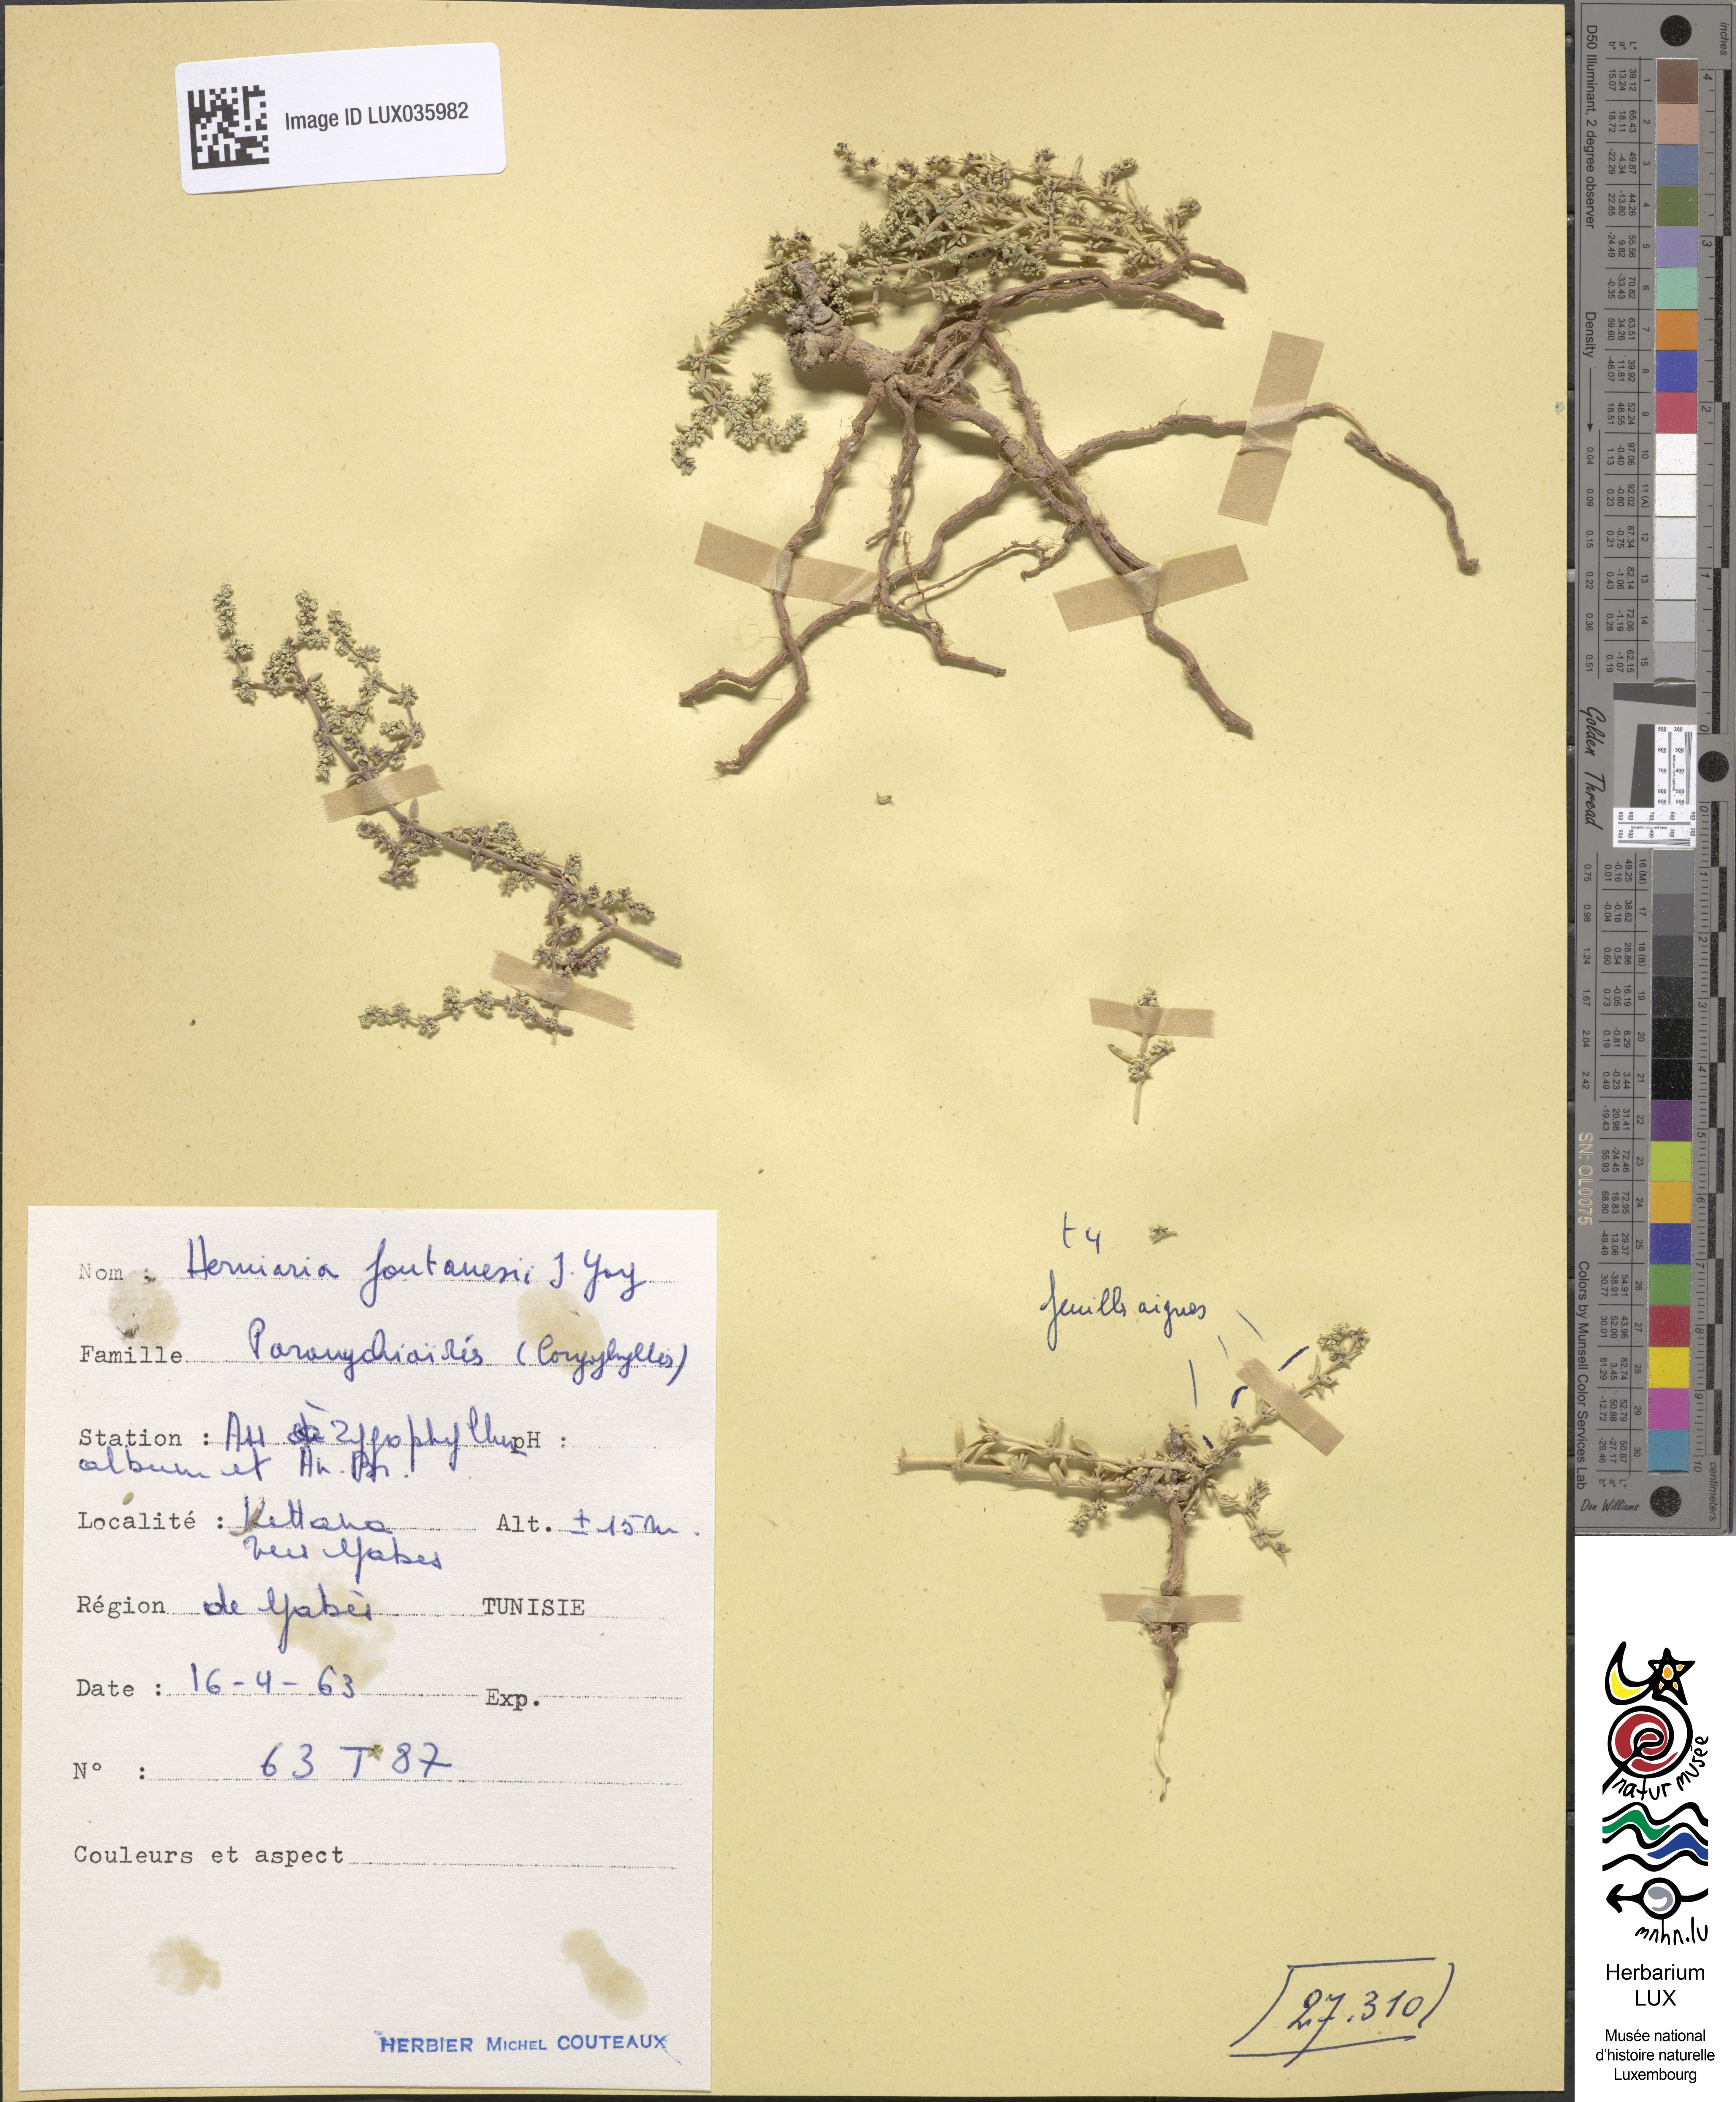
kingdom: Plantae
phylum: Tracheophyta
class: Magnoliopsida
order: Caryophyllales
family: Caryophyllaceae
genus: Herniaria
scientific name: Herniaria fontanesii
